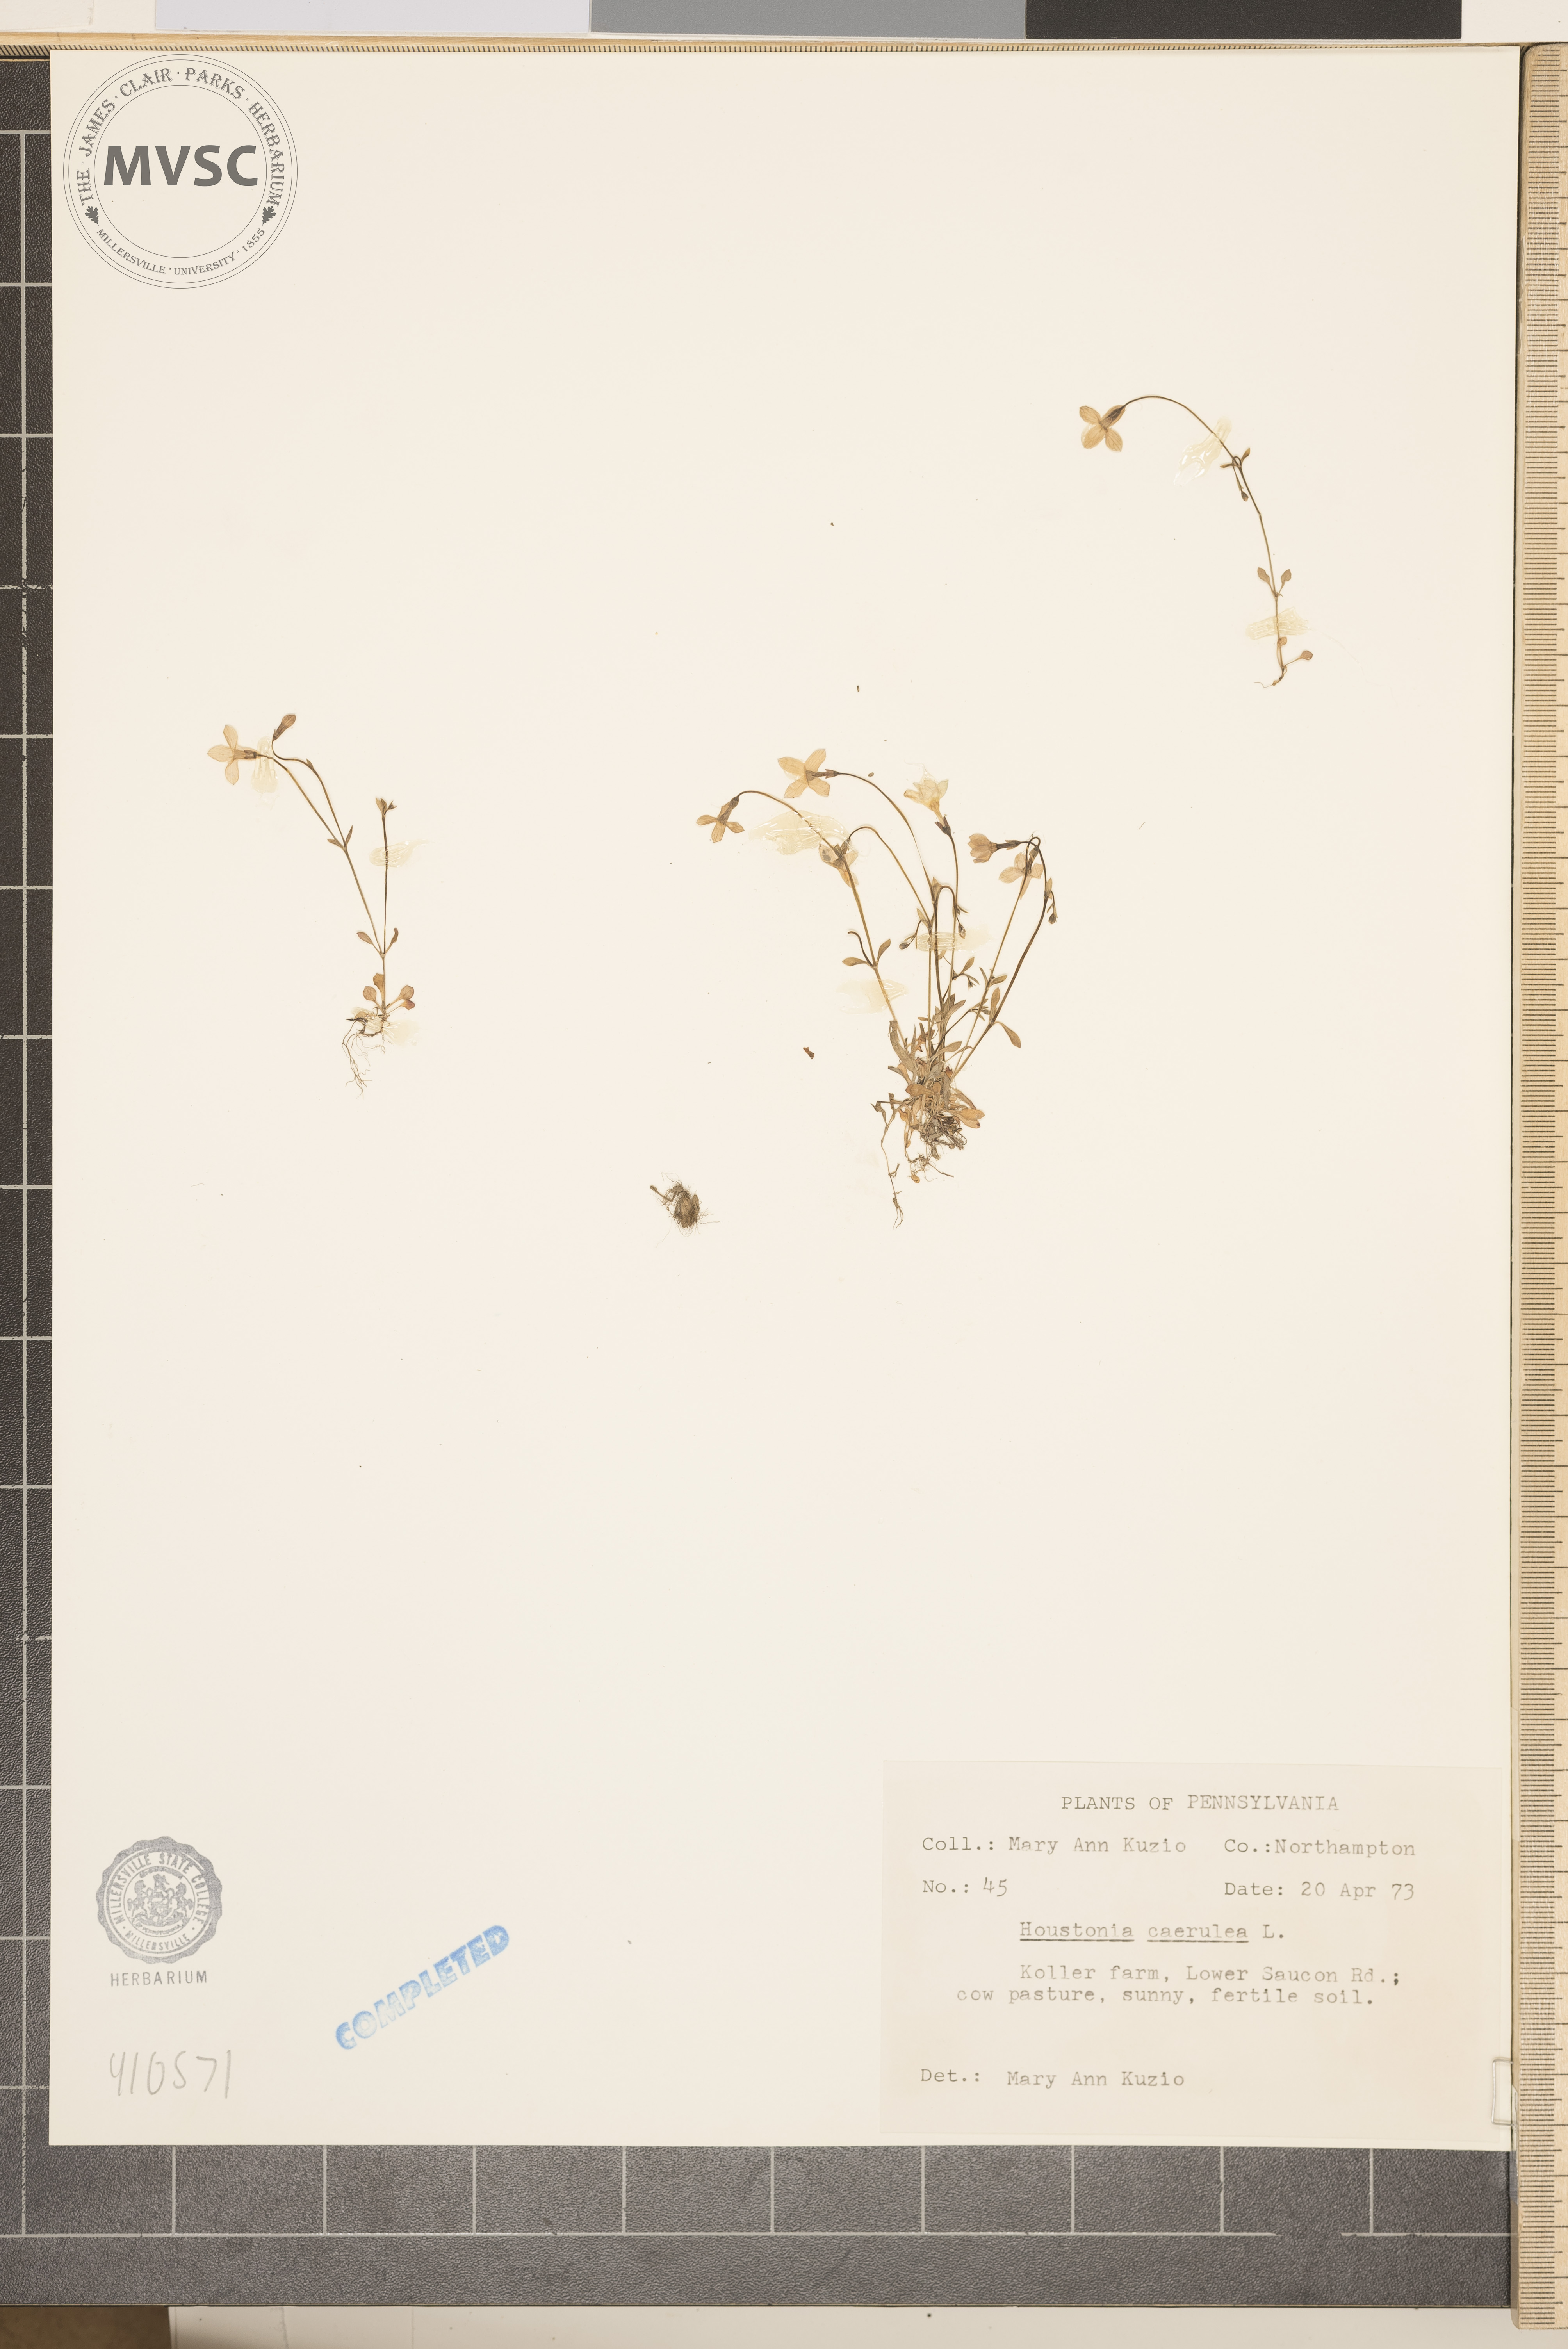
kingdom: Plantae
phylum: Tracheophyta
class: Magnoliopsida
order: Gentianales
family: Rubiaceae
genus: Houstonia
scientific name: Houstonia caerulea
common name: Bluets
